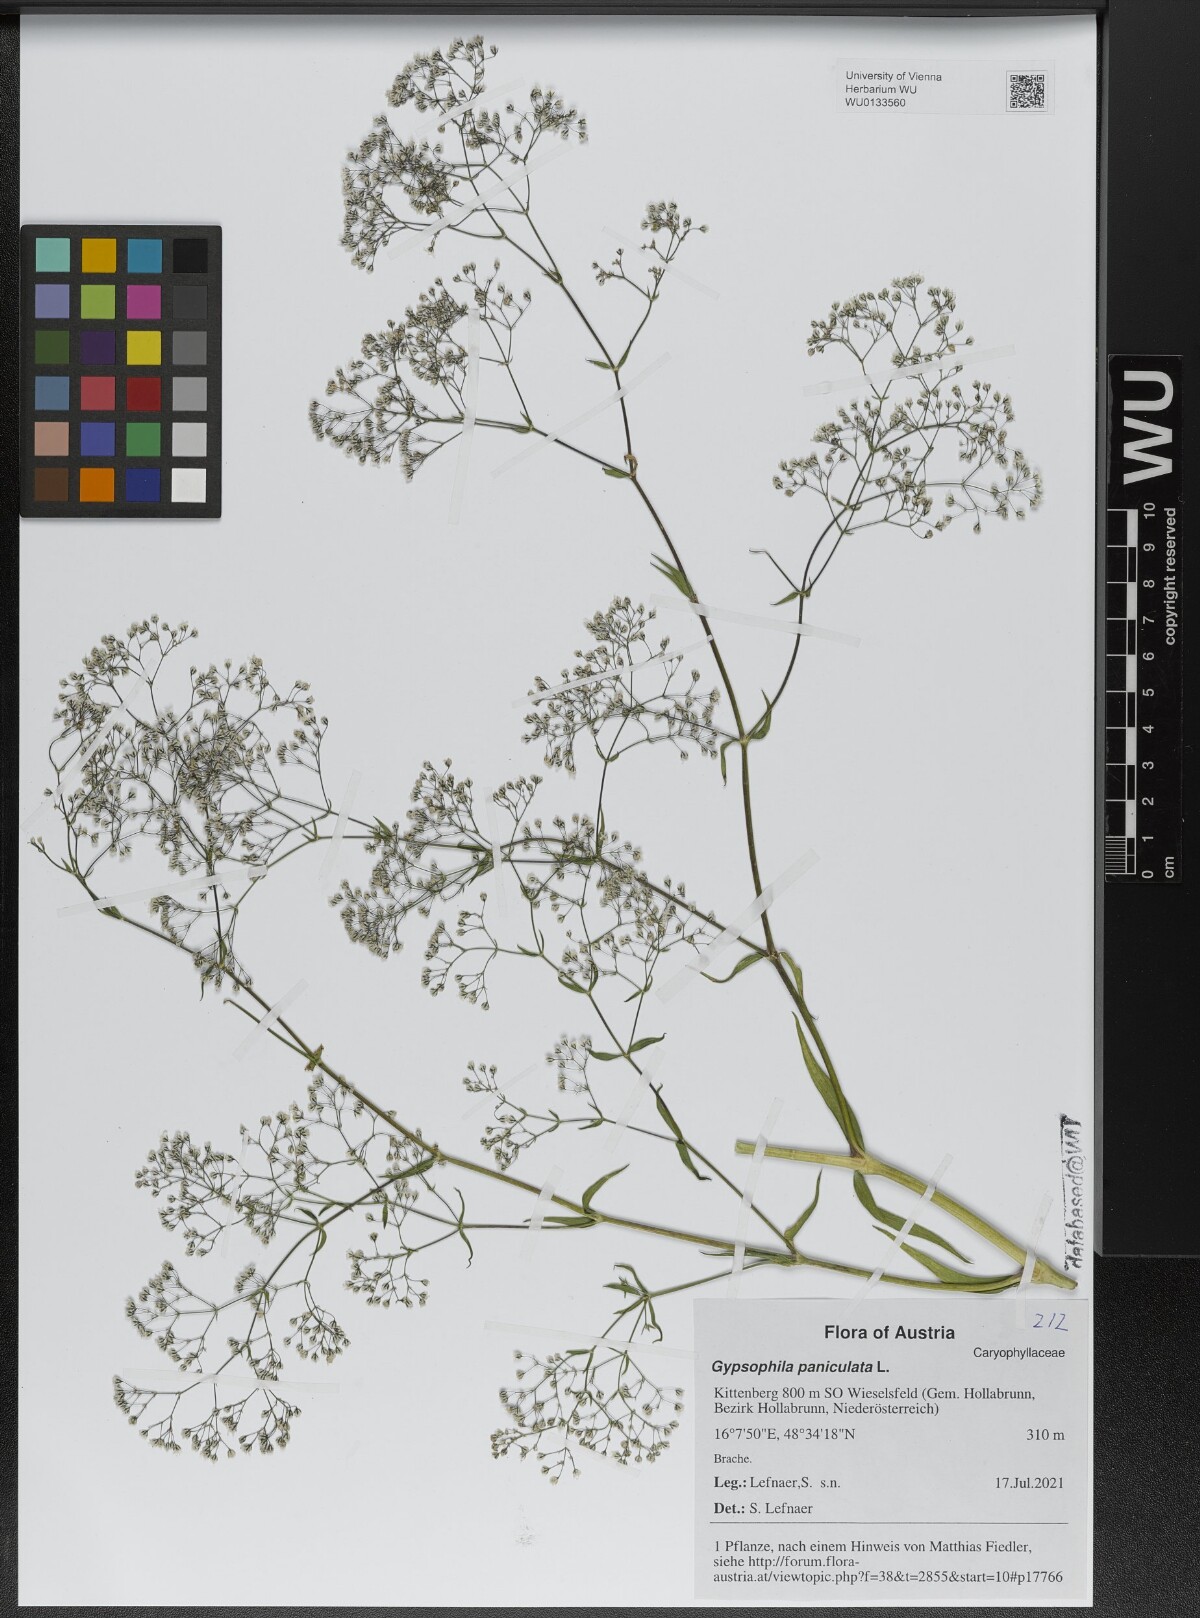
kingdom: Plantae
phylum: Tracheophyta
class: Magnoliopsida
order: Caryophyllales
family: Caryophyllaceae
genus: Gypsophila
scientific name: Gypsophila paniculata
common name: Baby's-breath
